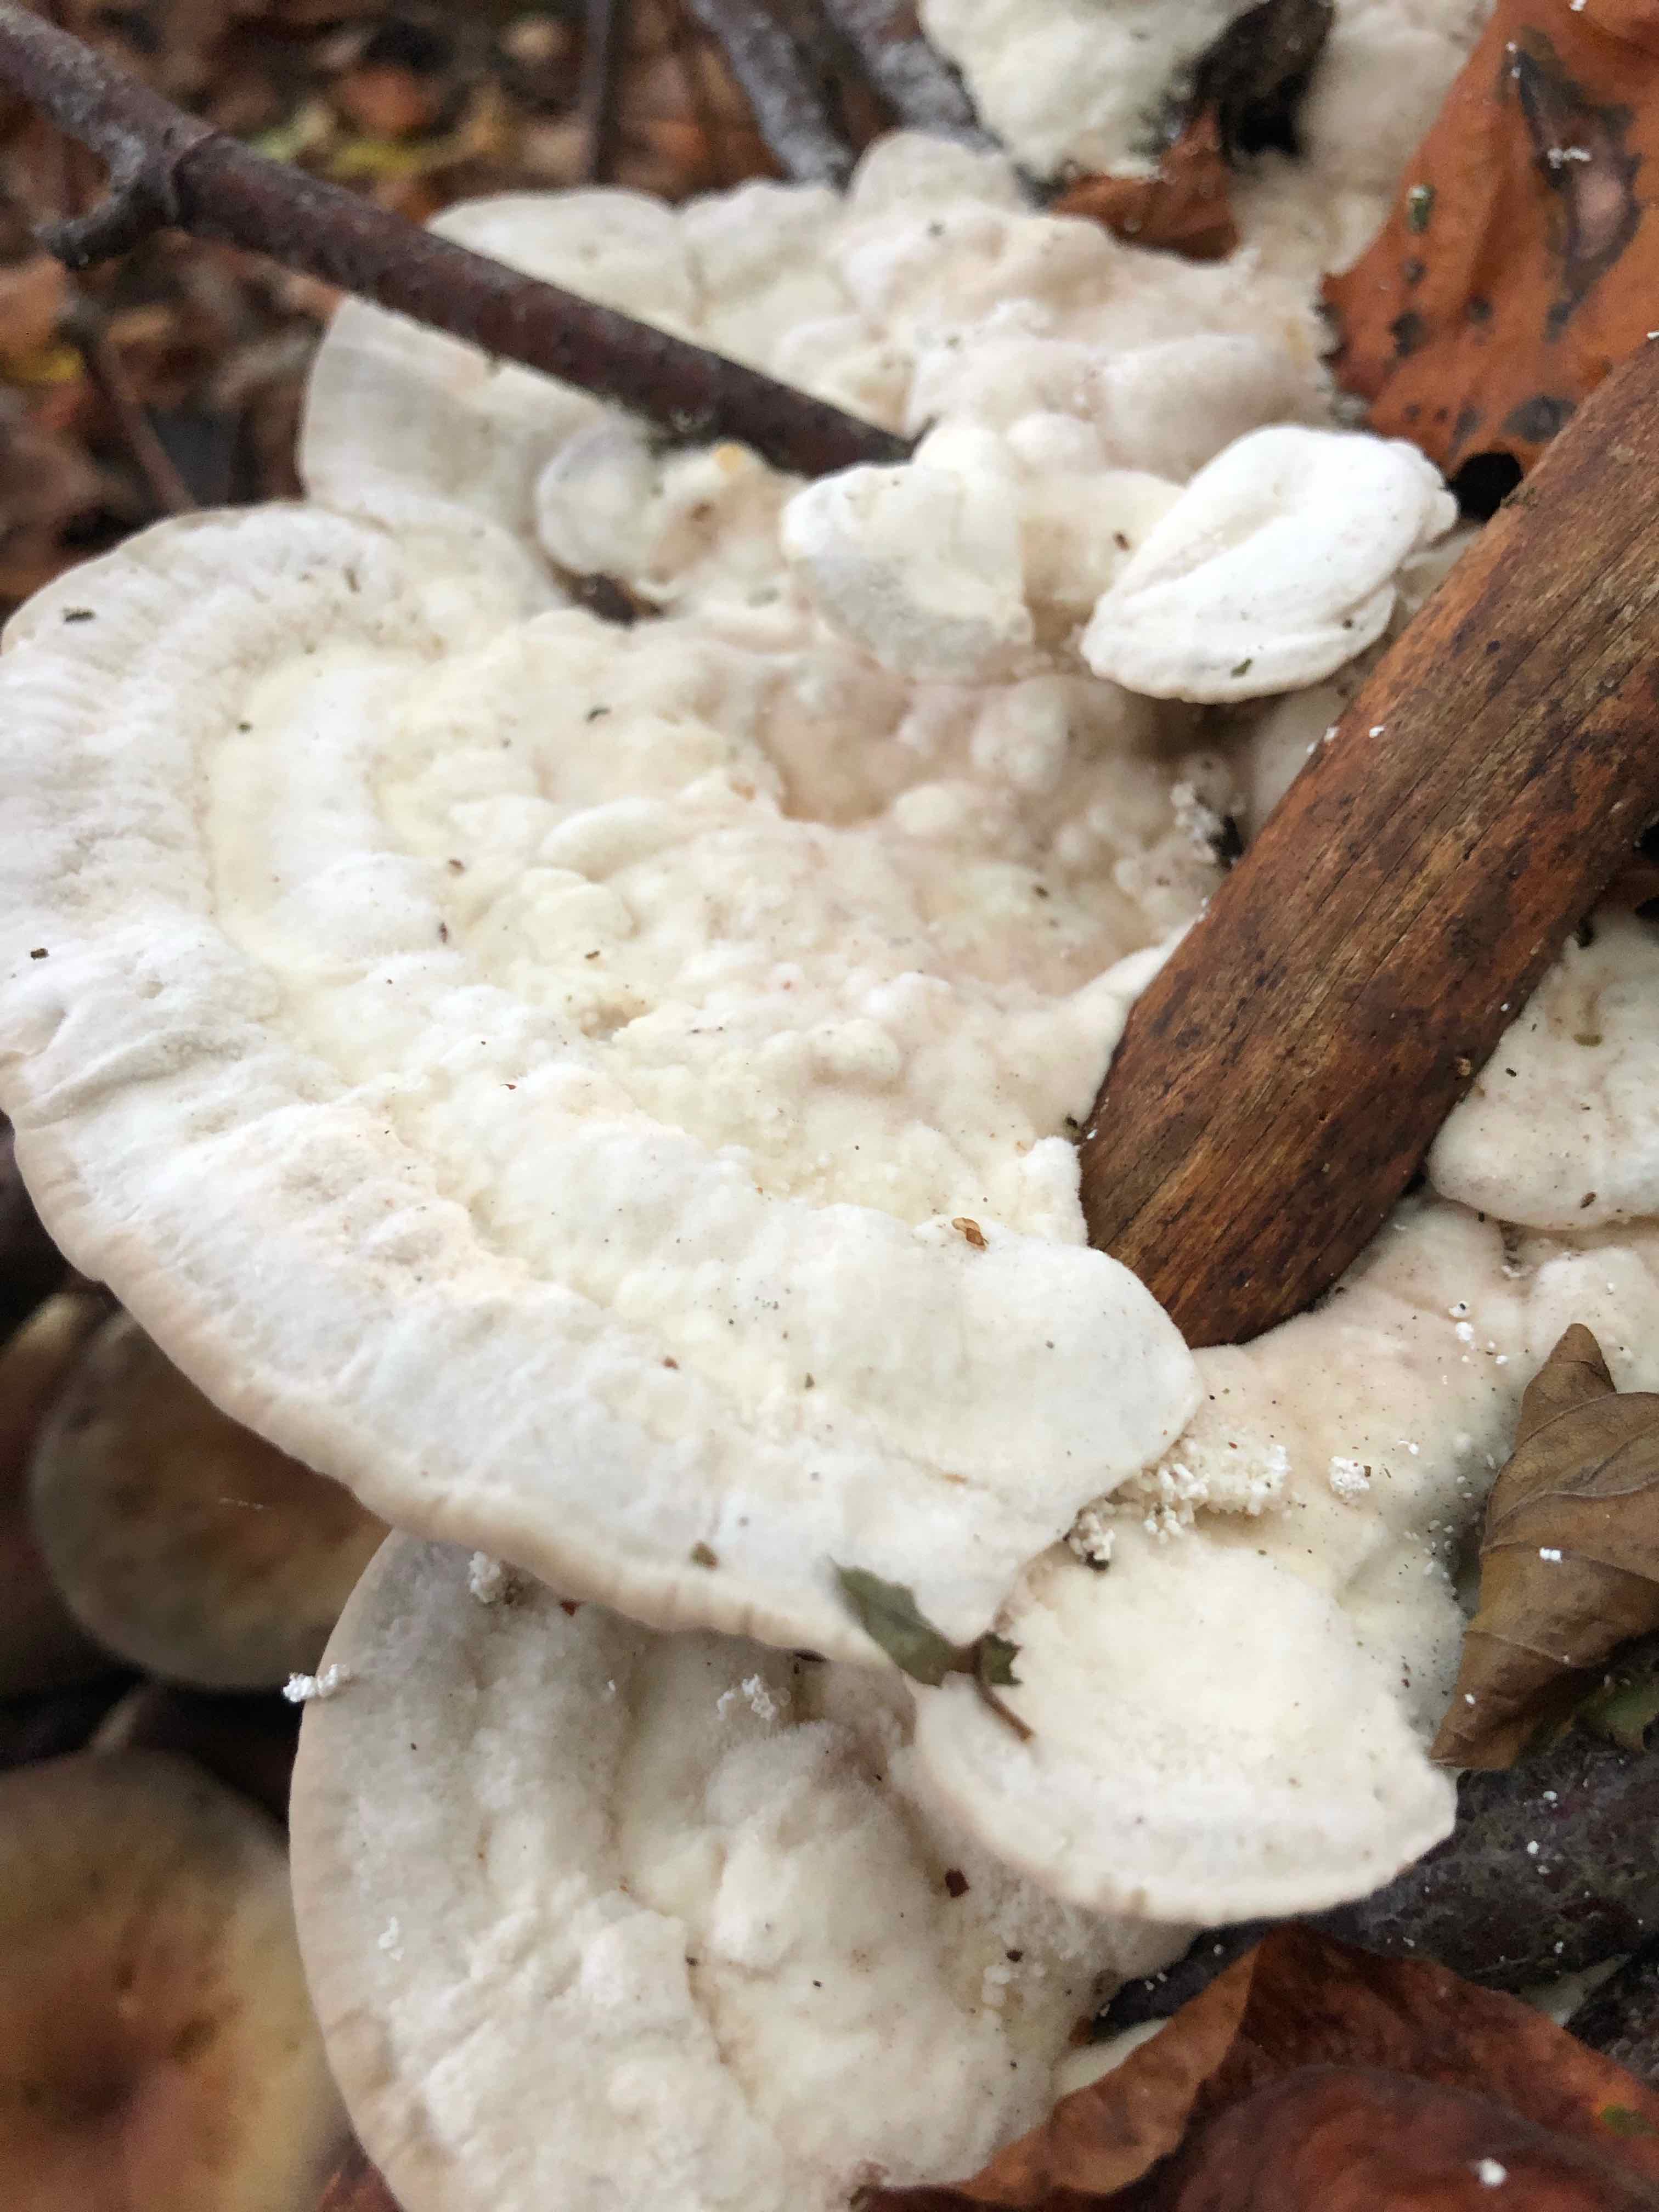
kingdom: Fungi
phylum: Basidiomycota
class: Agaricomycetes
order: Polyporales
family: Polyporaceae
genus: Trametes
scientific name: Trametes gibbosa
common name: puklet læderporesvamp
